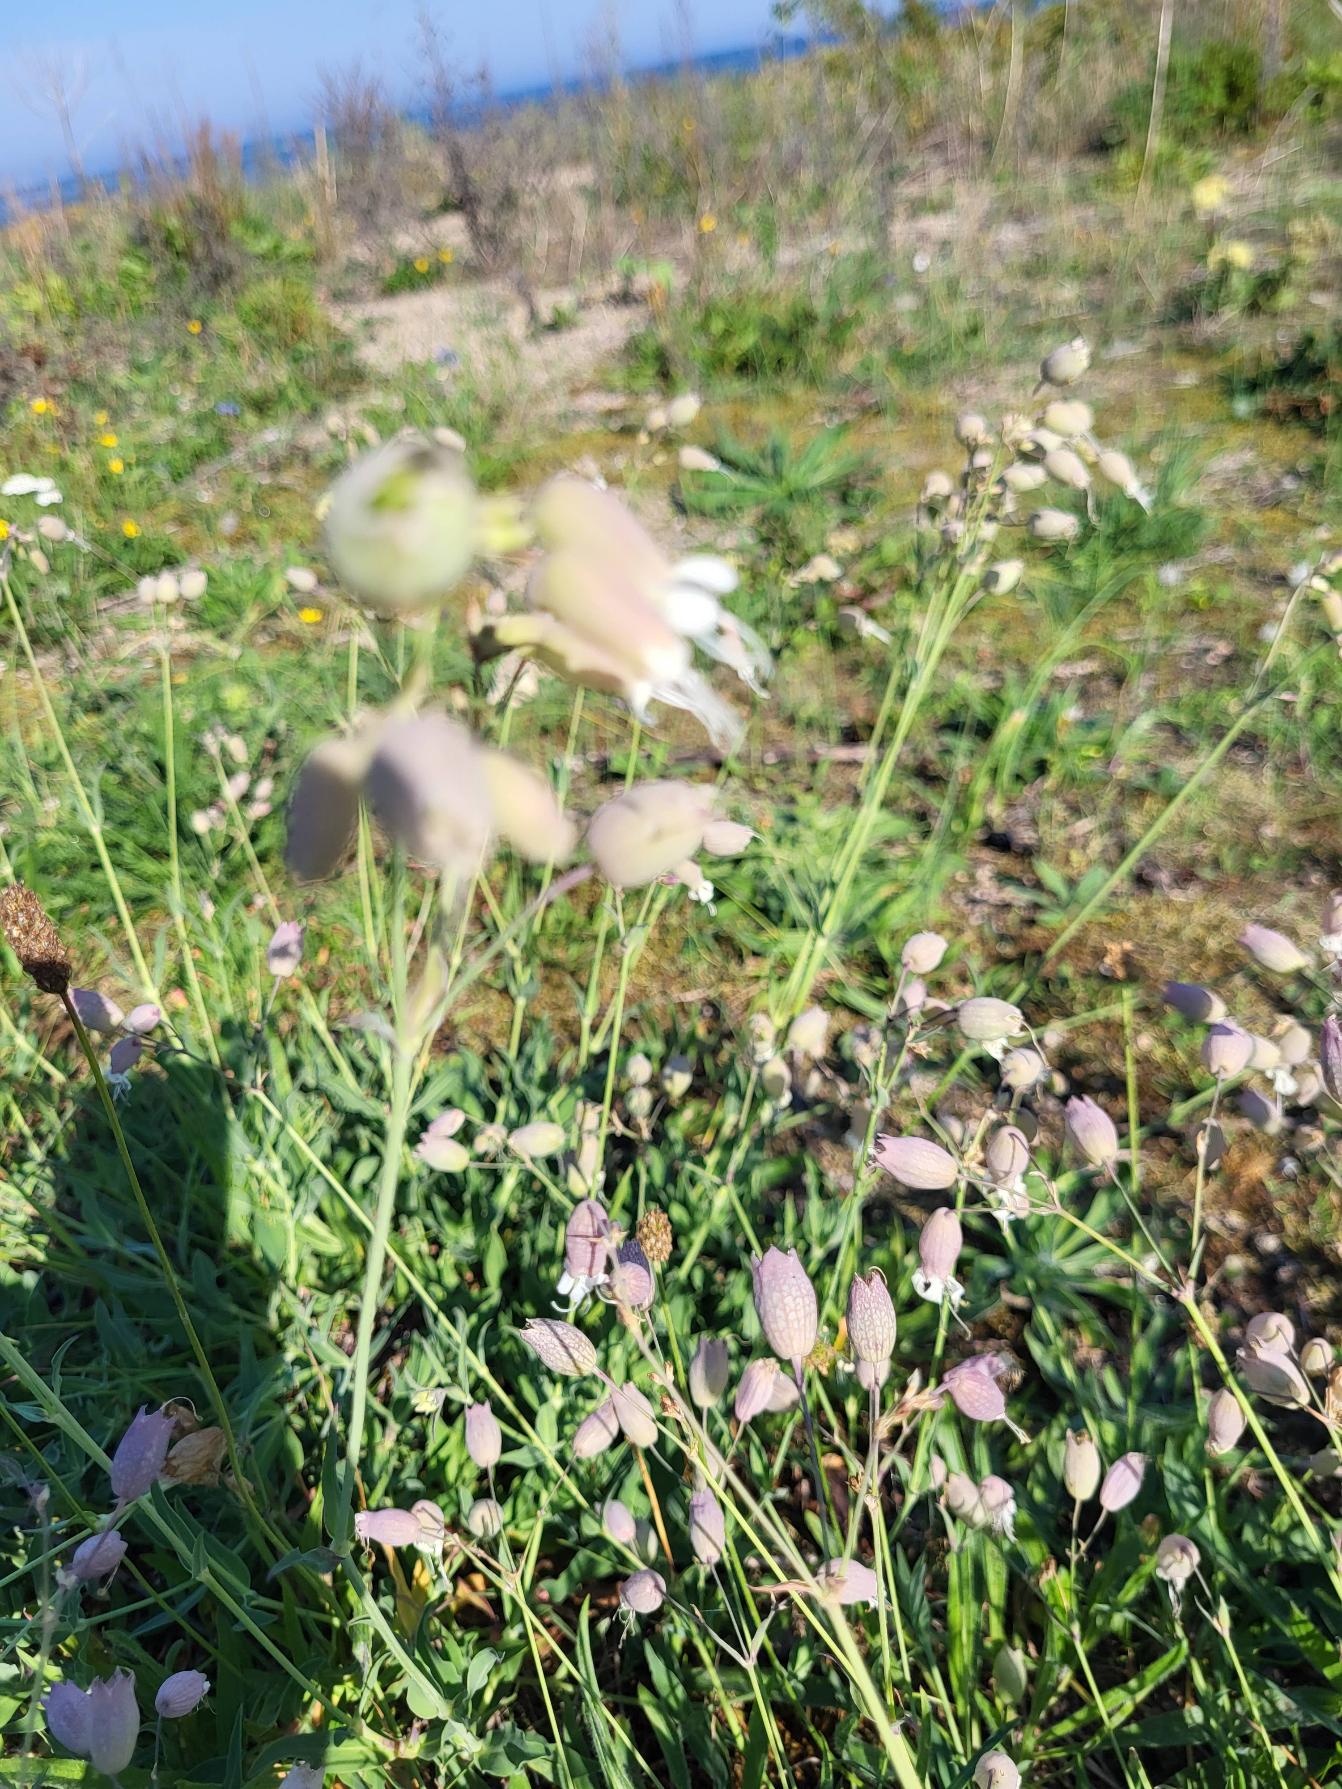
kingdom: Plantae
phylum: Tracheophyta
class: Magnoliopsida
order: Caryophyllales
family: Caryophyllaceae
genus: Silene
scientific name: Silene vulgaris
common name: Blæresmælde
